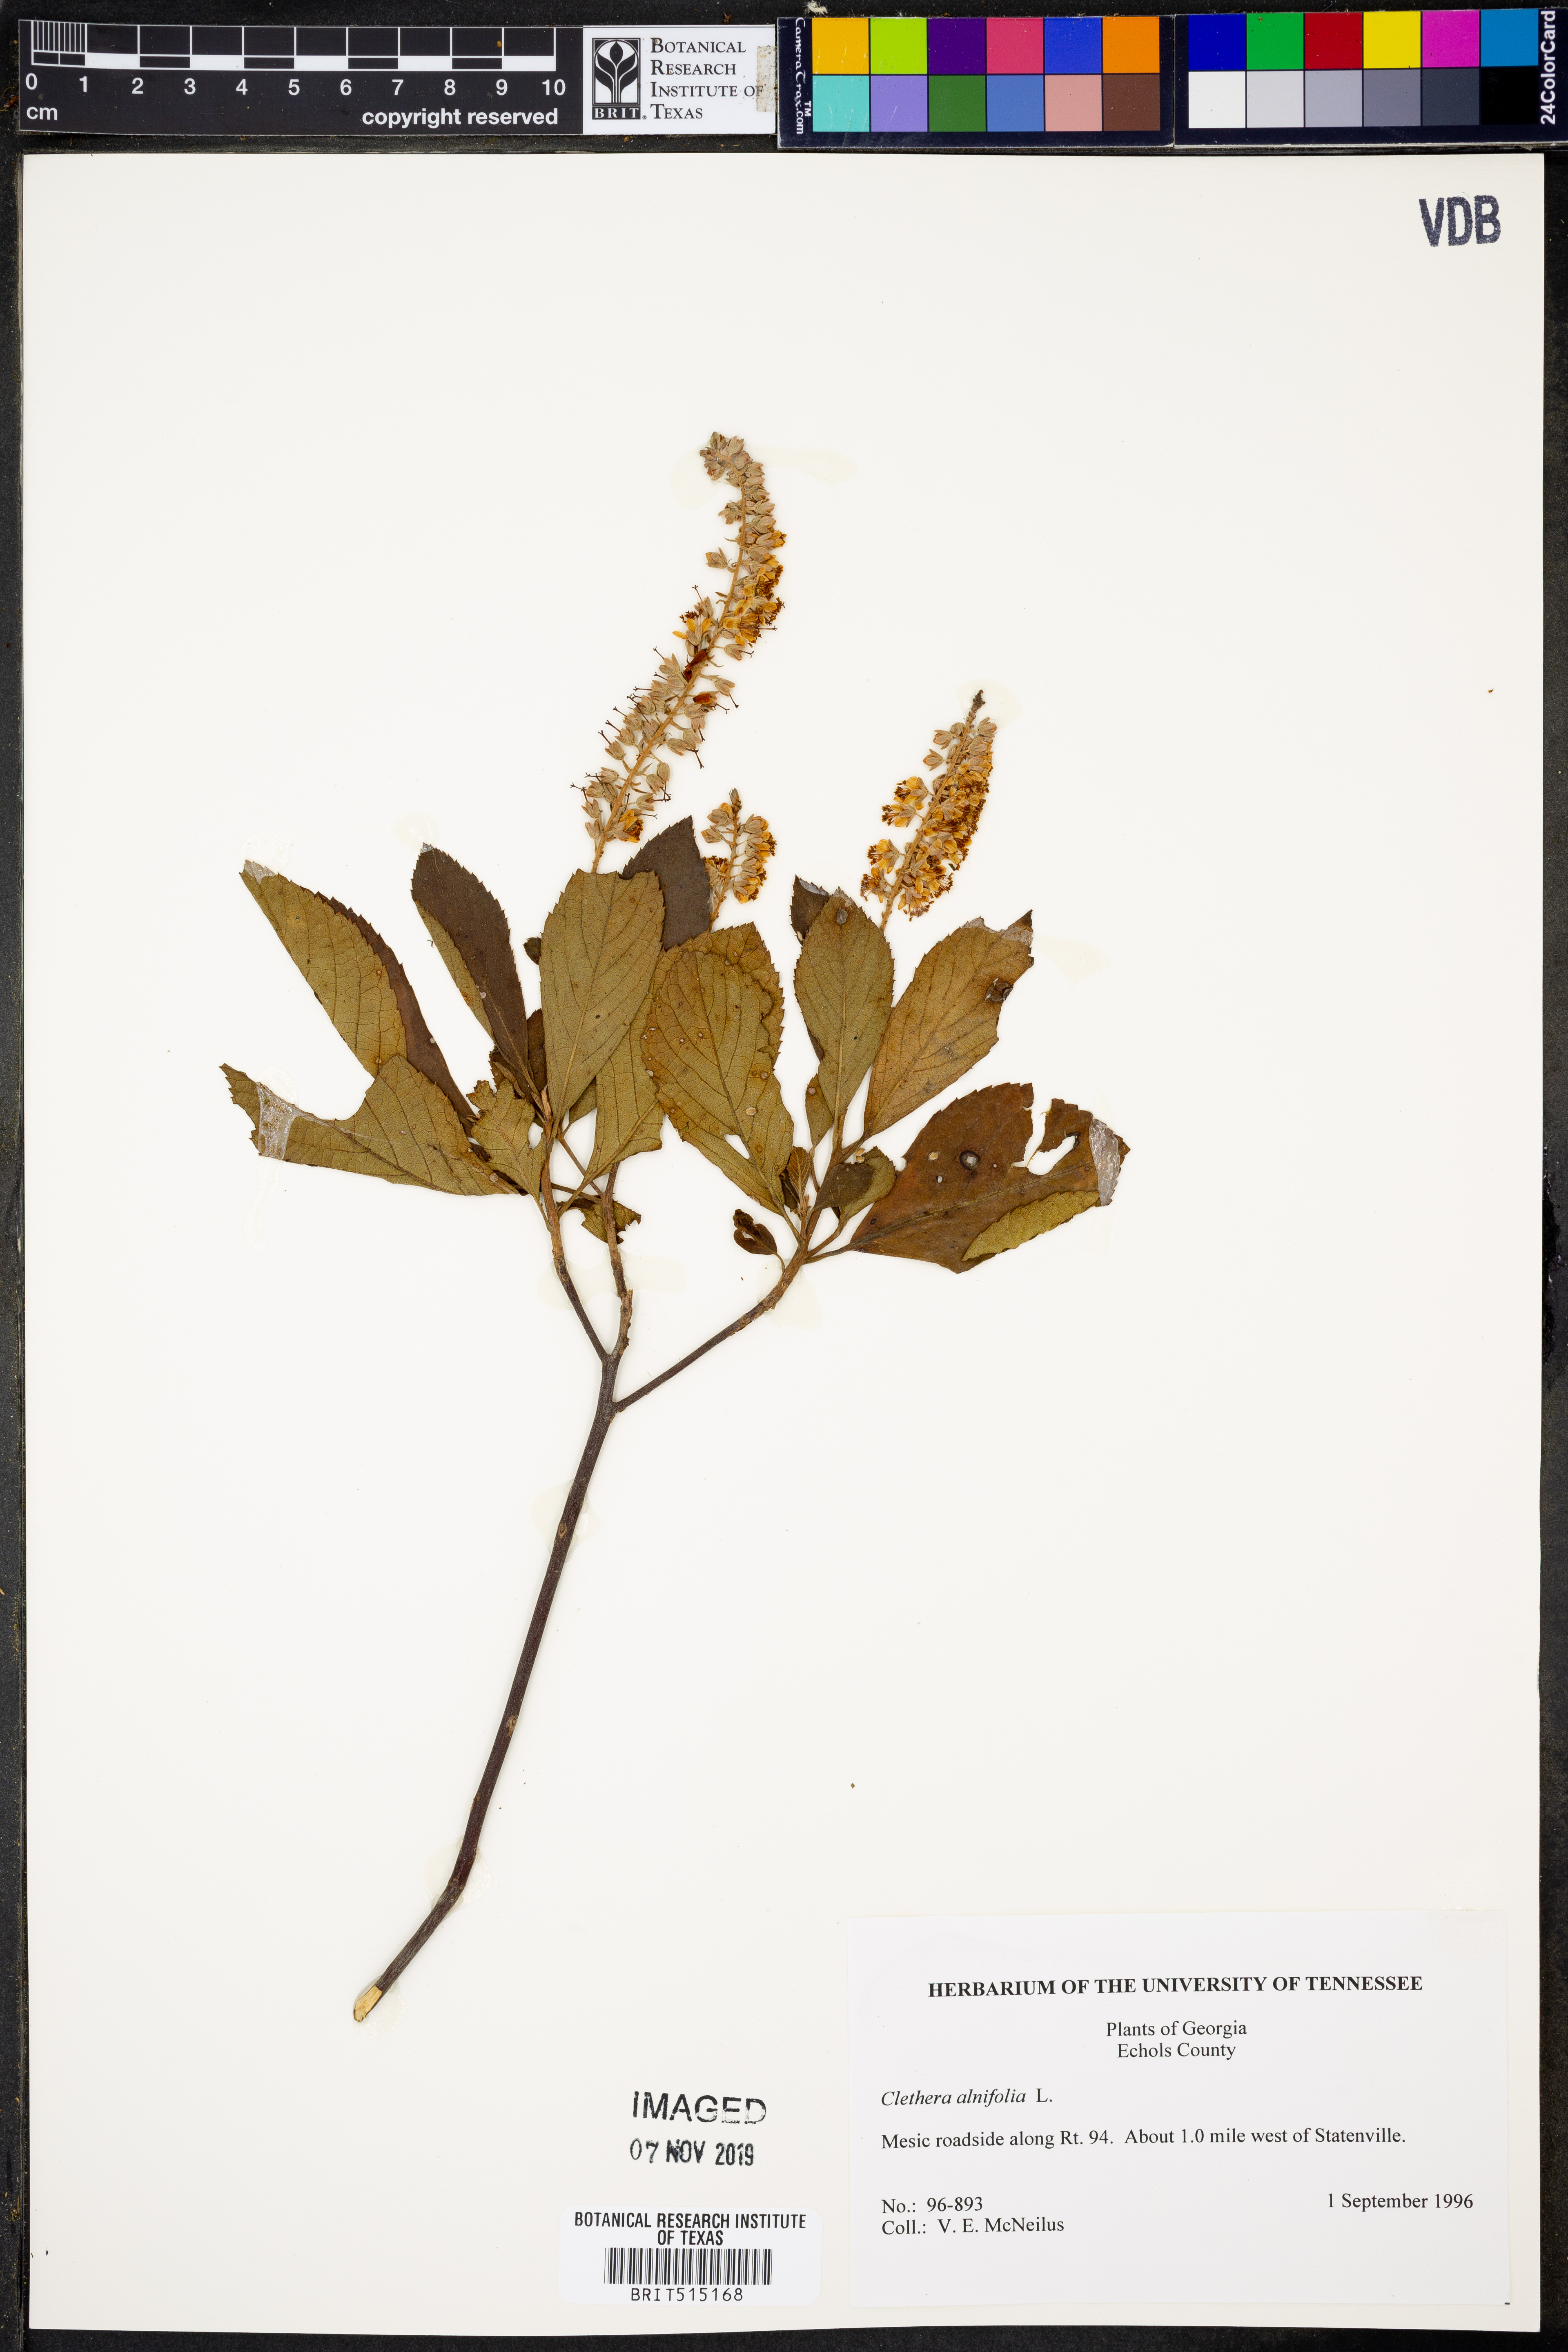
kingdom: Plantae
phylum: Tracheophyta
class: Magnoliopsida
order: Ericales
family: Clethraceae
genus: Clethra
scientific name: Clethra alnifolia
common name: Sweet pepperbush
